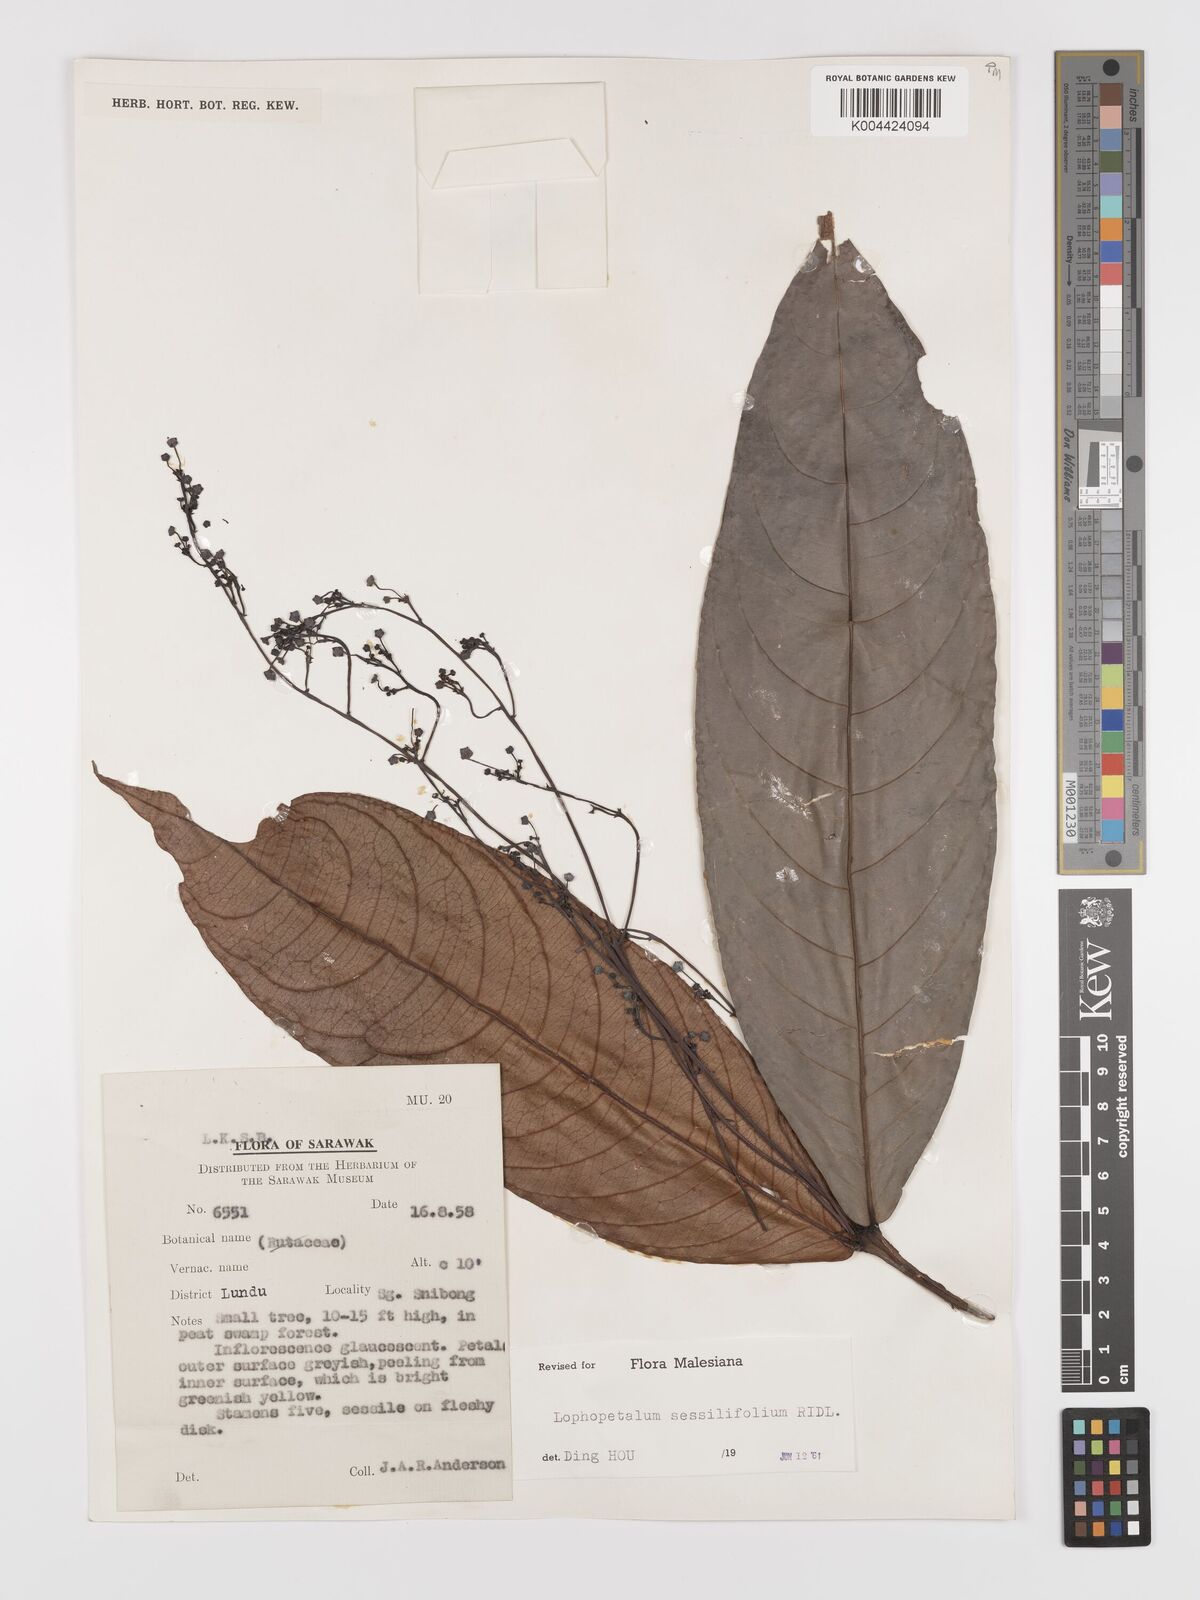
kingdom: Plantae
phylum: Tracheophyta
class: Magnoliopsida
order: Celastrales
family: Celastraceae
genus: Lophopetalum
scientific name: Lophopetalum sessilifolium
